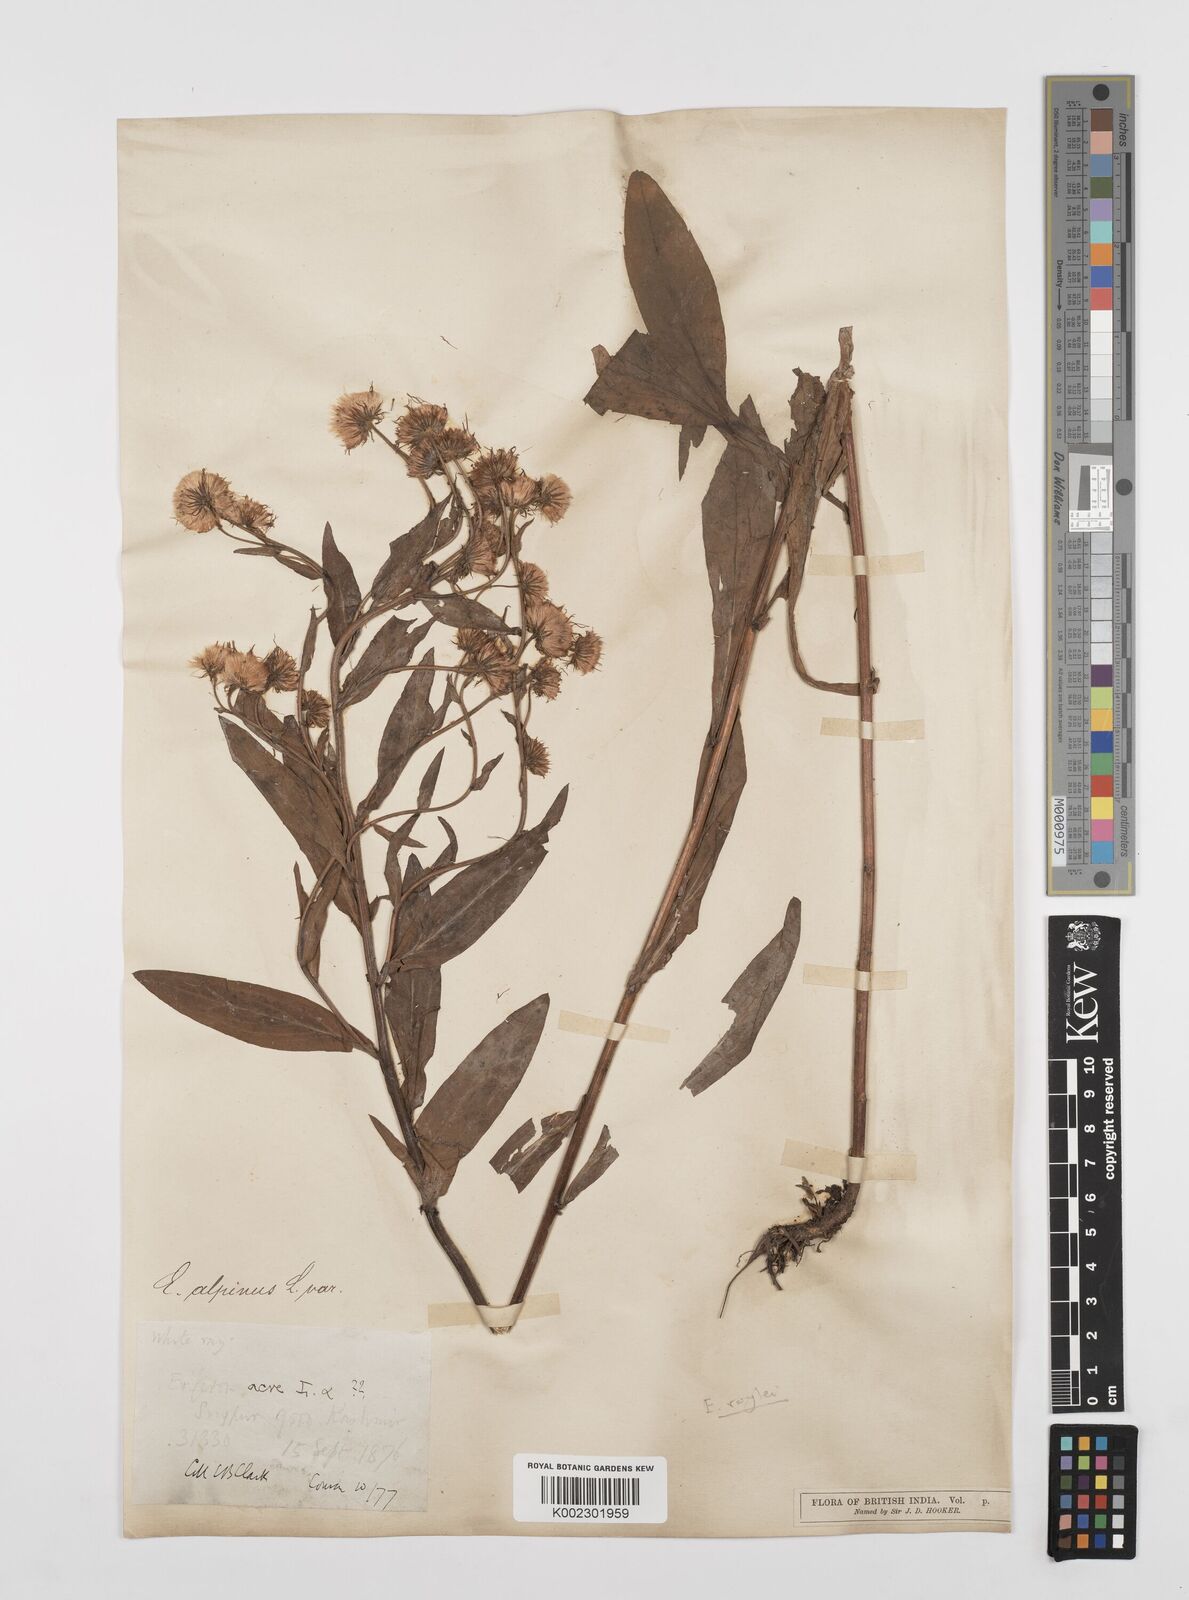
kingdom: Plantae
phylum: Tracheophyta
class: Magnoliopsida
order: Asterales
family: Asteraceae
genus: Erigeron
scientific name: Erigeron alpinus
